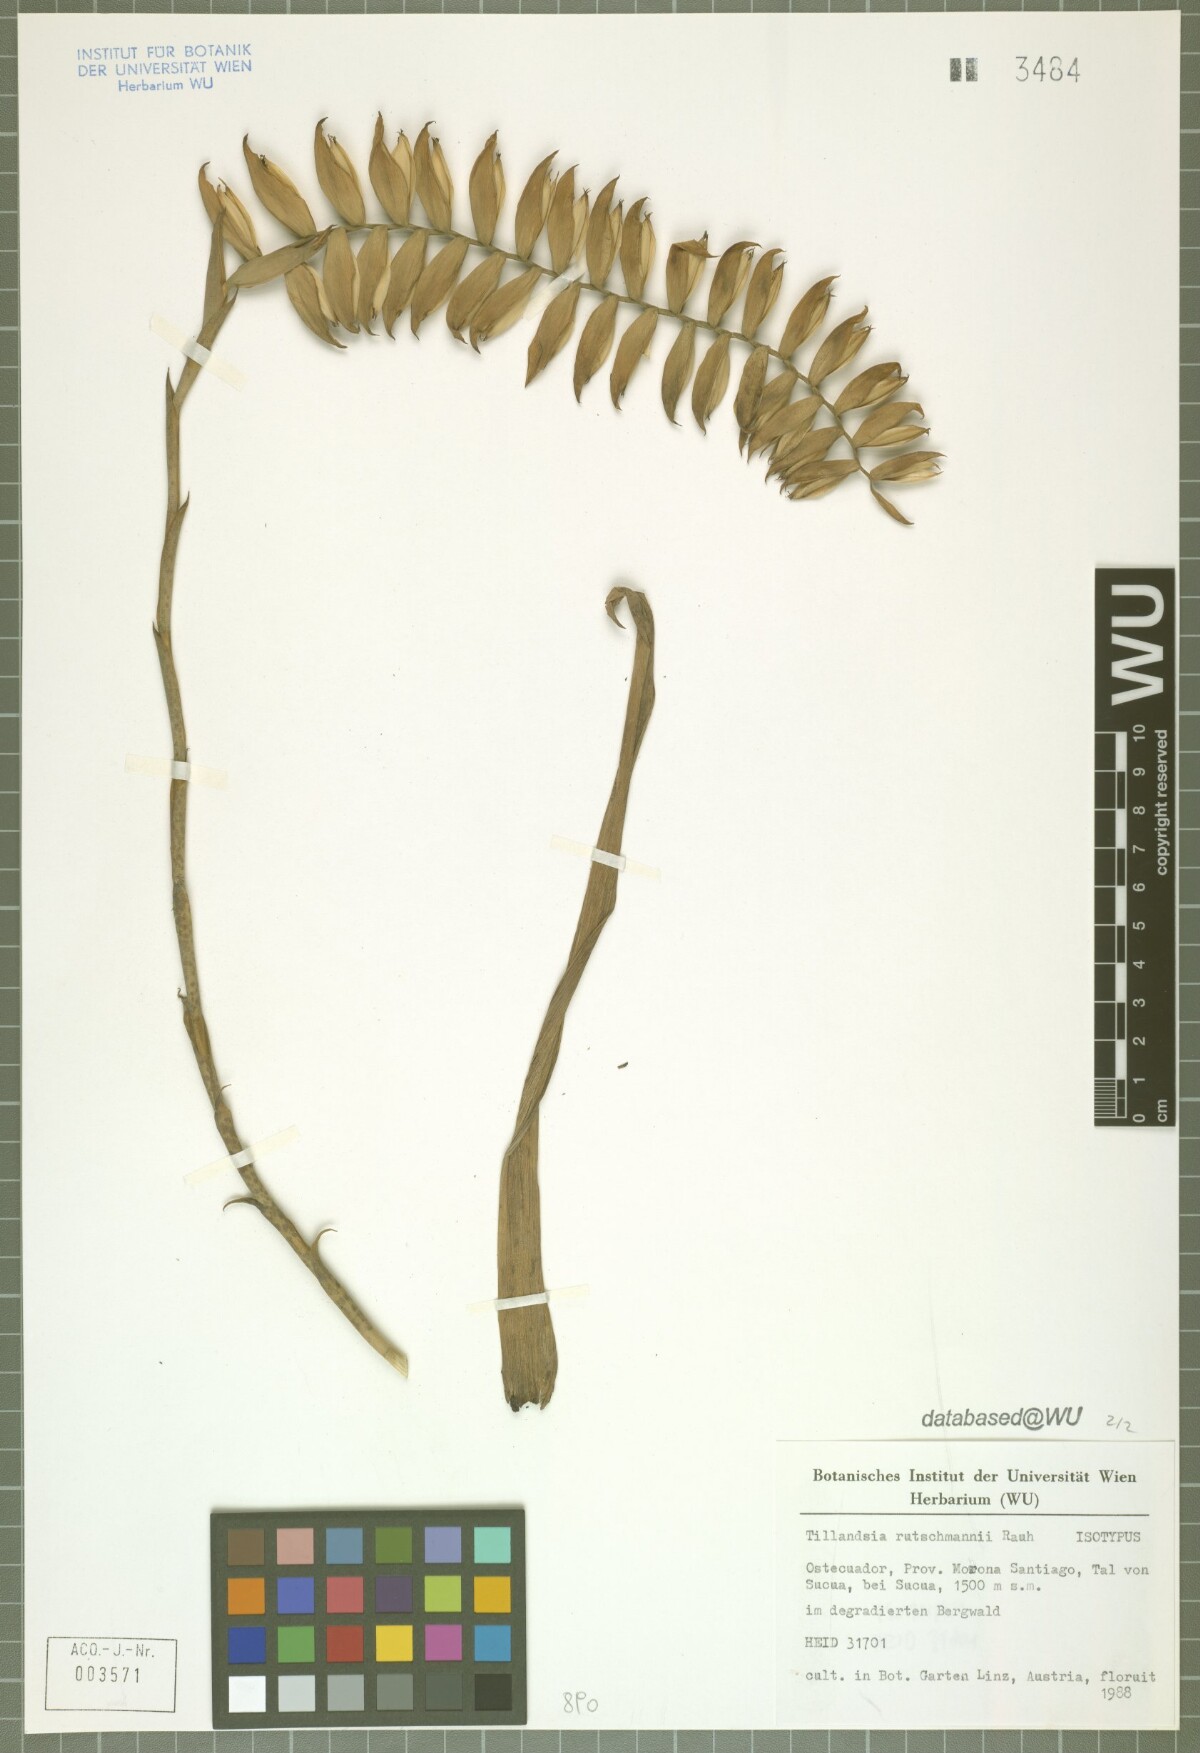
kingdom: Plantae
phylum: Tracheophyta
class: Liliopsida
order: Poales
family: Bromeliaceae
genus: Racinaea
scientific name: Racinaea dyeriana
